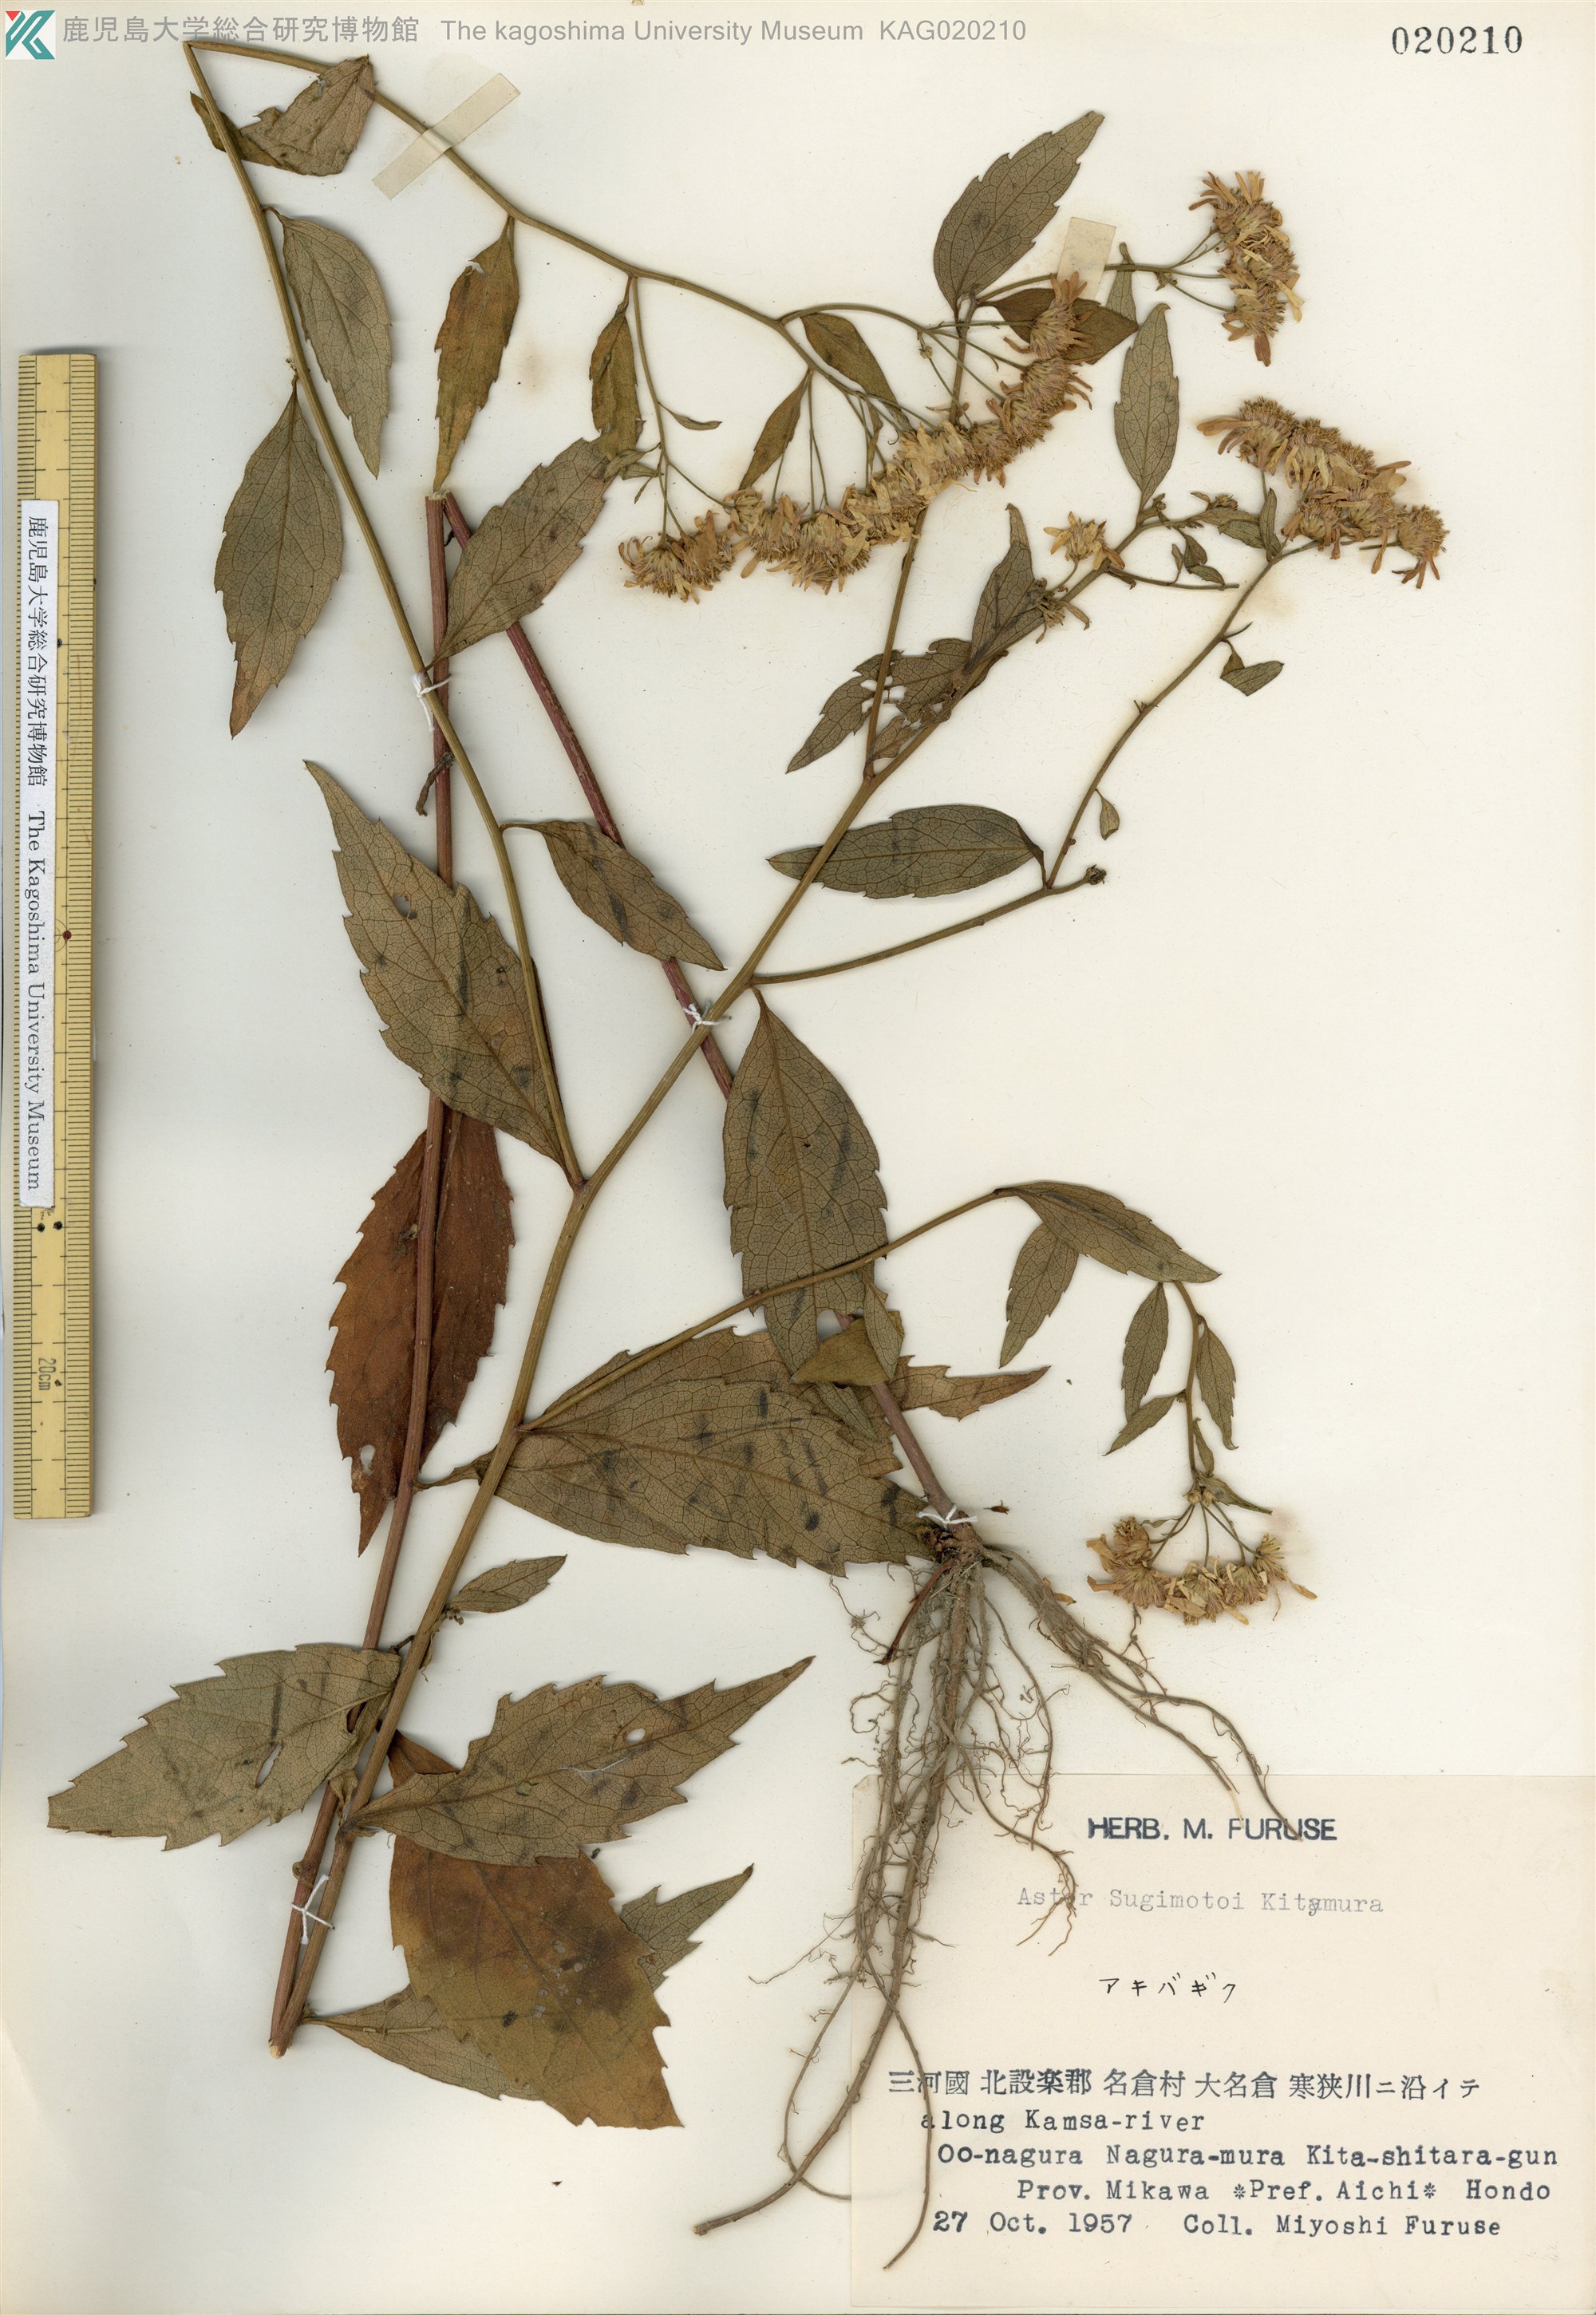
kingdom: Plantae
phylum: Tracheophyta
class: Magnoliopsida
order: Asterales
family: Asteraceae
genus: Aster
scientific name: Aster sugimotoi
